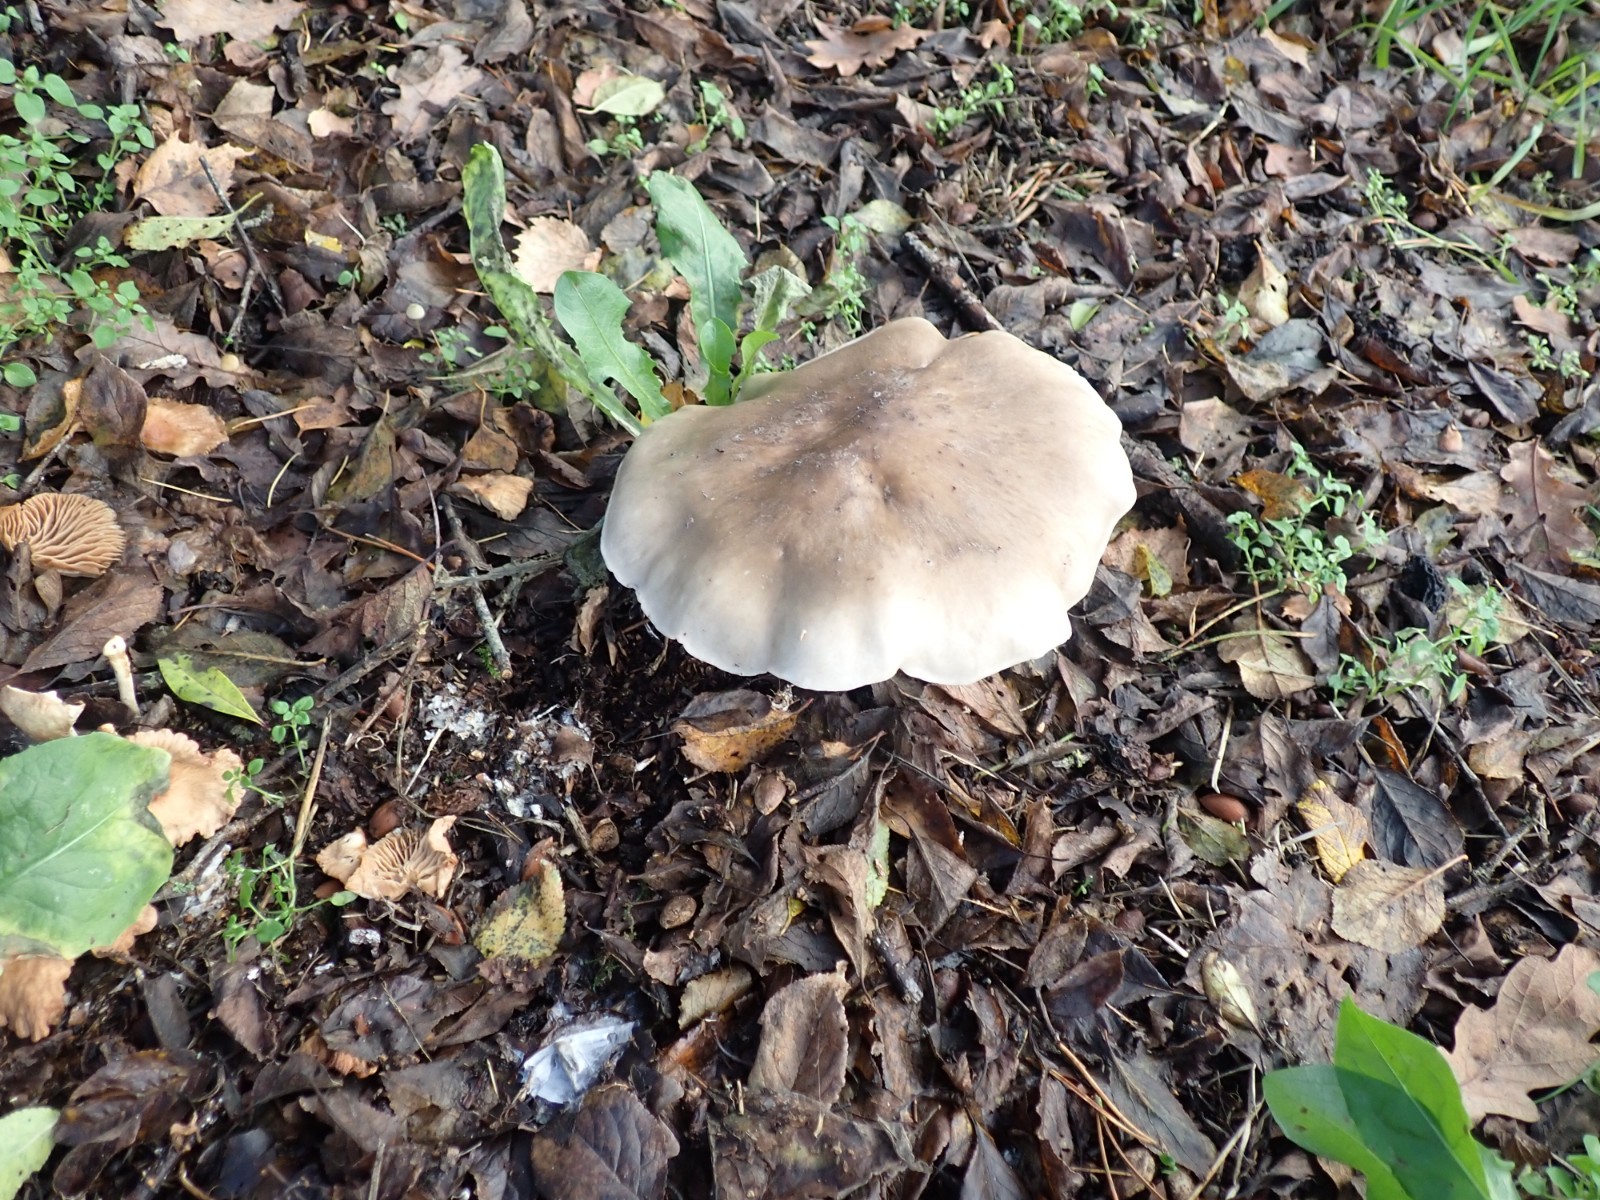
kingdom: Fungi
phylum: Basidiomycota
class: Agaricomycetes
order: Agaricales
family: Tricholomataceae
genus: Clitocybe
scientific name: Clitocybe nebularis
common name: tåge-tragthat
